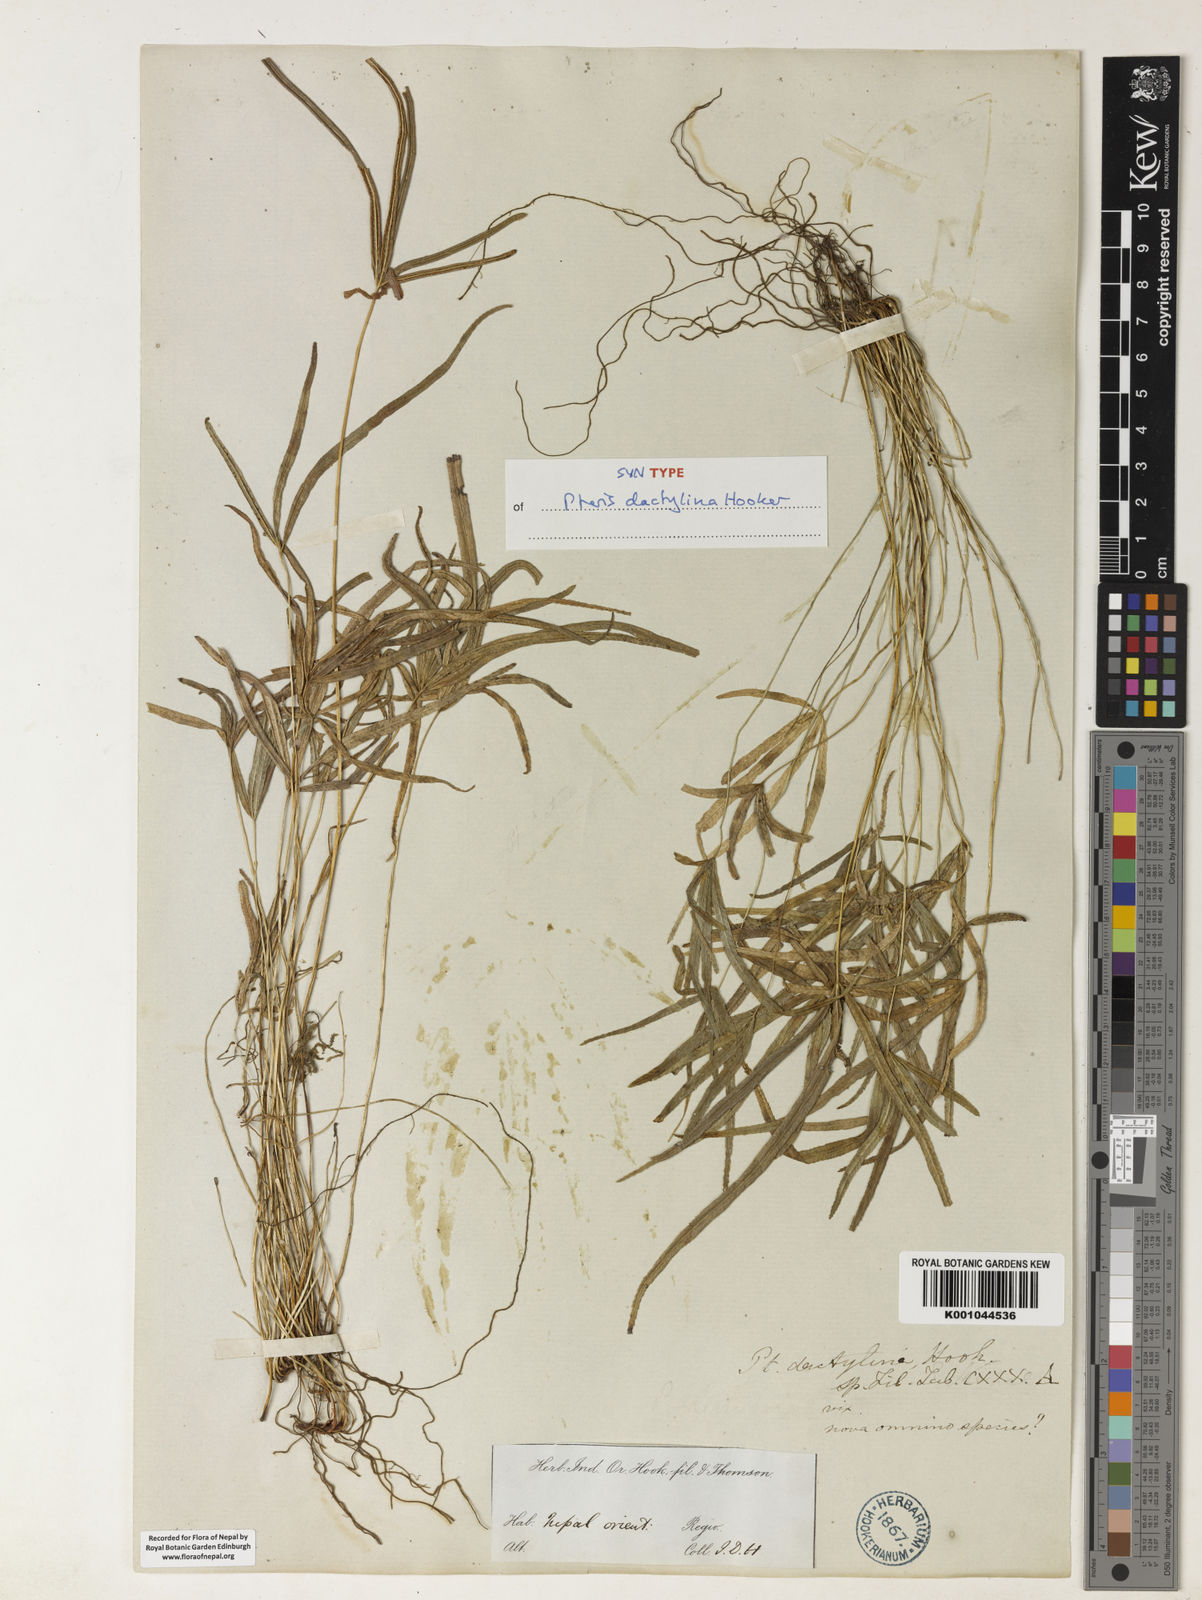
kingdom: Plantae
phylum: Tracheophyta
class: Polypodiopsida
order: Polypodiales
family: Pteridaceae
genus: Pteris
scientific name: Pteris dactylina
